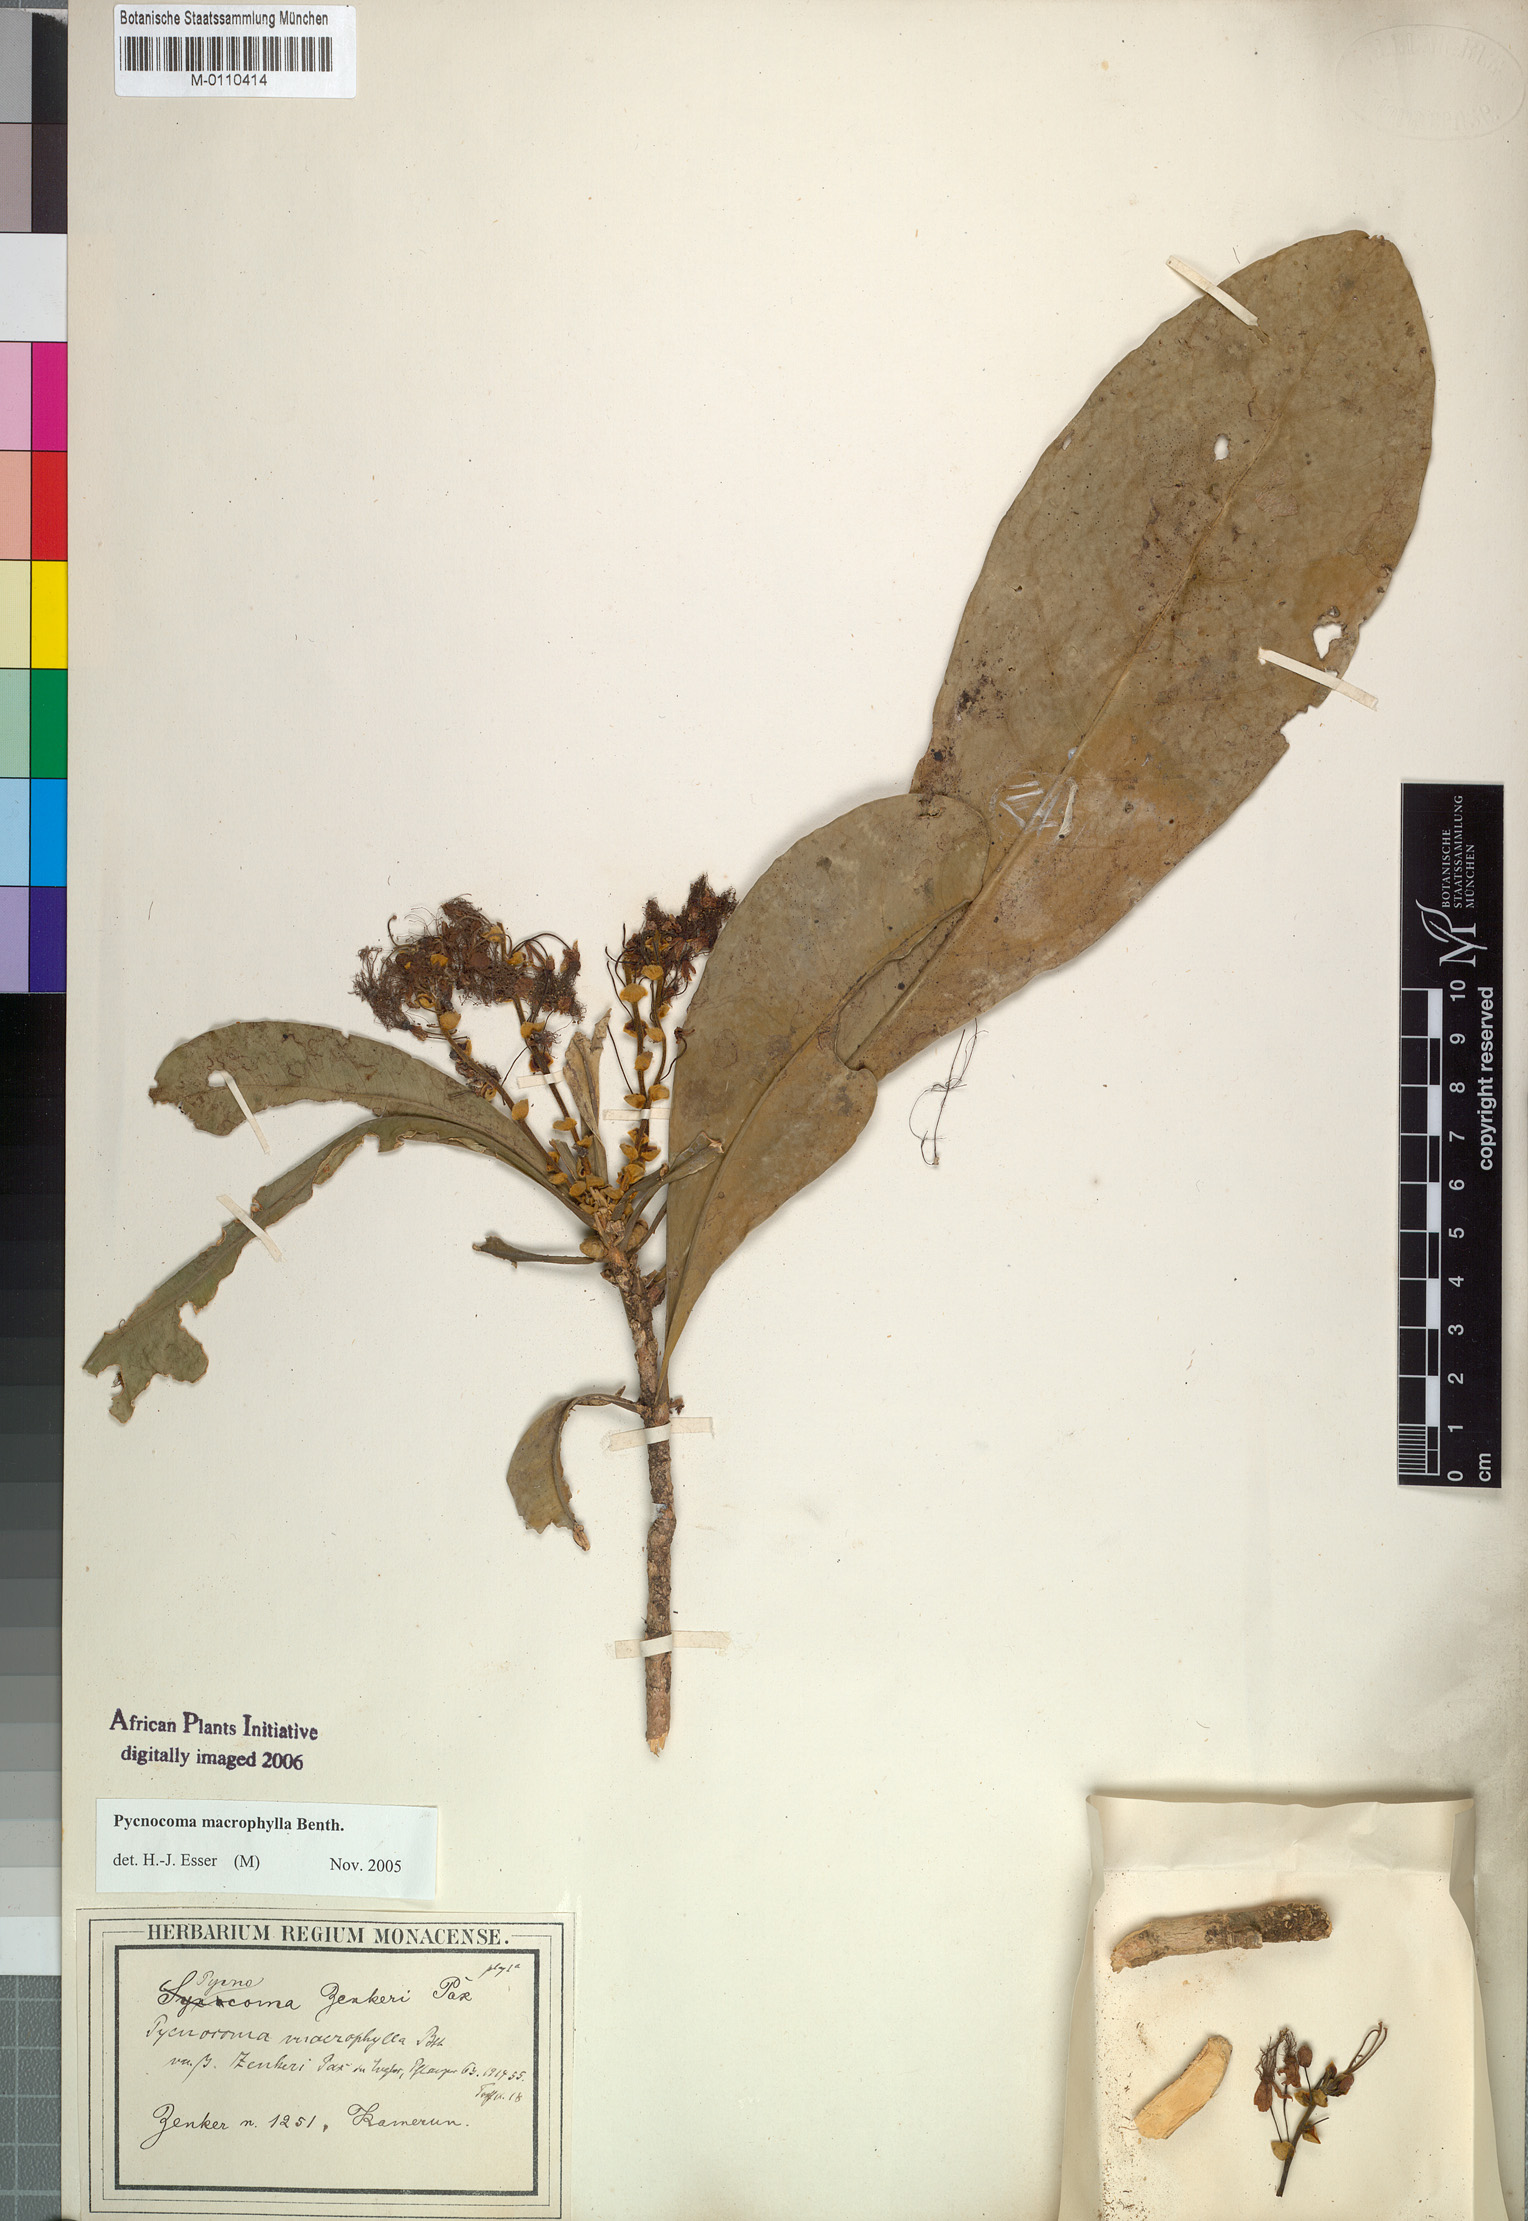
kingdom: Plantae
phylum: Tracheophyta
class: Magnoliopsida
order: Malpighiales
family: Euphorbiaceae
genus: Pycnocoma
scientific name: Pycnocoma macrophylla
